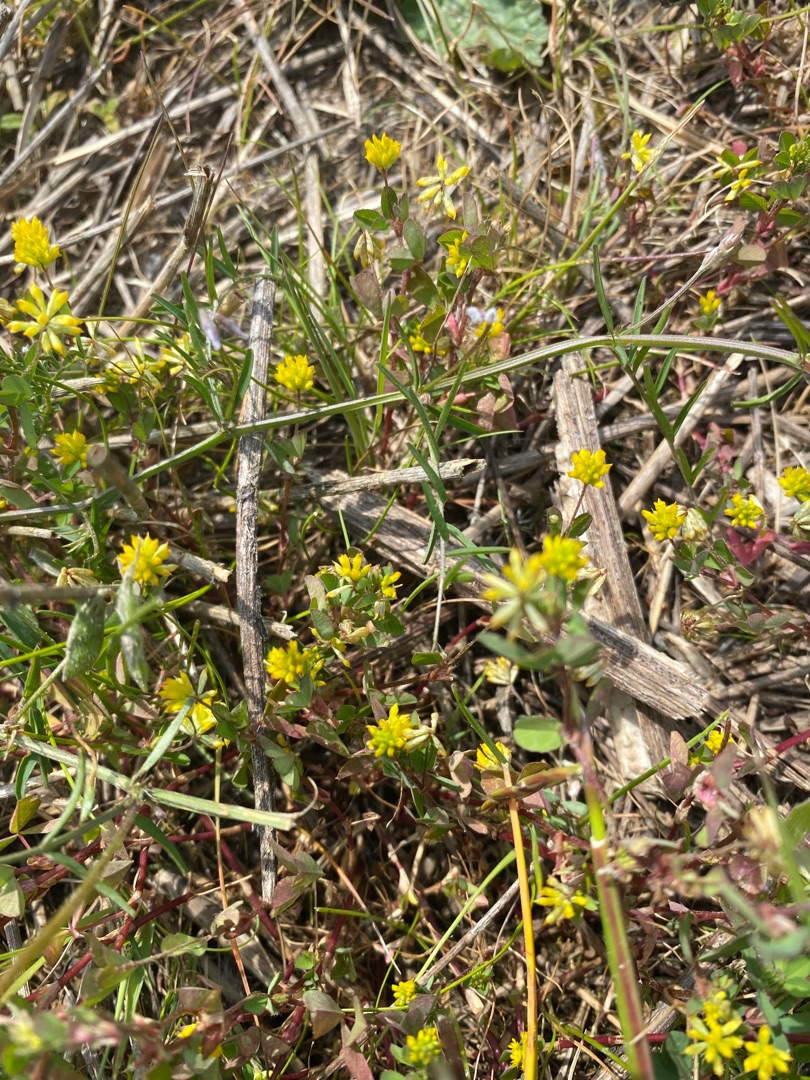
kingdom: Plantae
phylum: Tracheophyta
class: Magnoliopsida
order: Fabales
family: Fabaceae
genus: Trifolium
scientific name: Trifolium dubium
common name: Fin kløver
